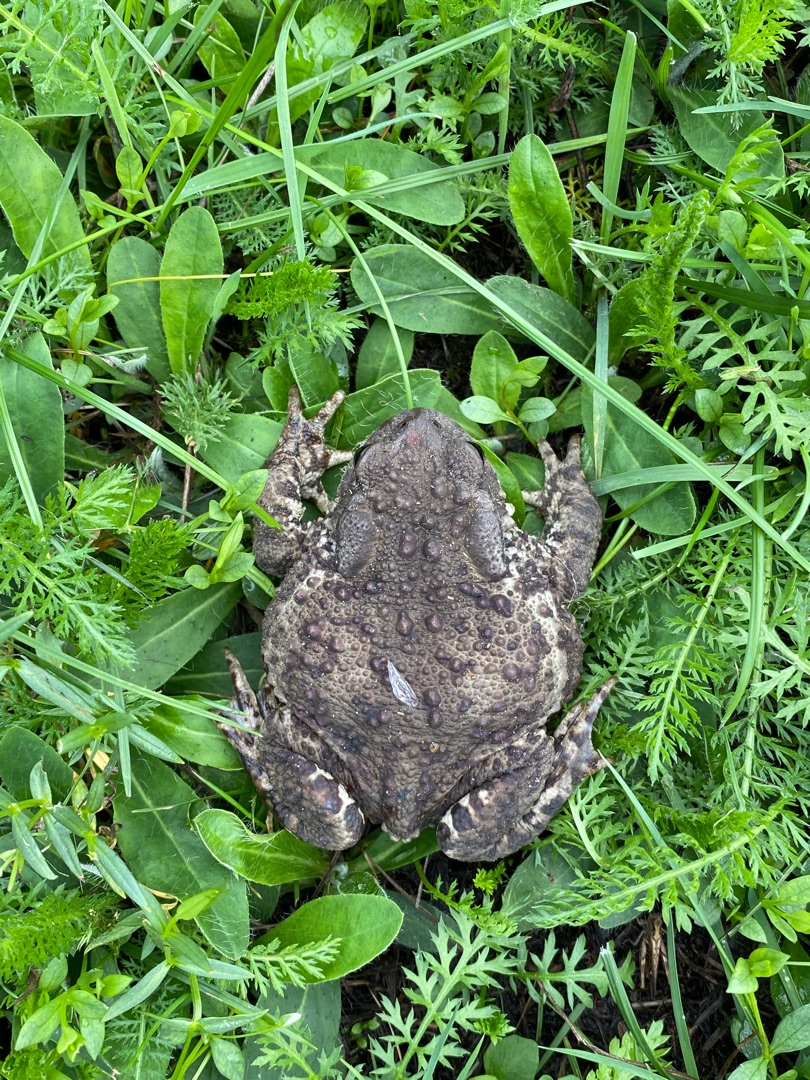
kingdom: Animalia
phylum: Chordata
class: Amphibia
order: Anura
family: Bufonidae
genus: Bufo
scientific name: Bufo bufo
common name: Skrubtudse
